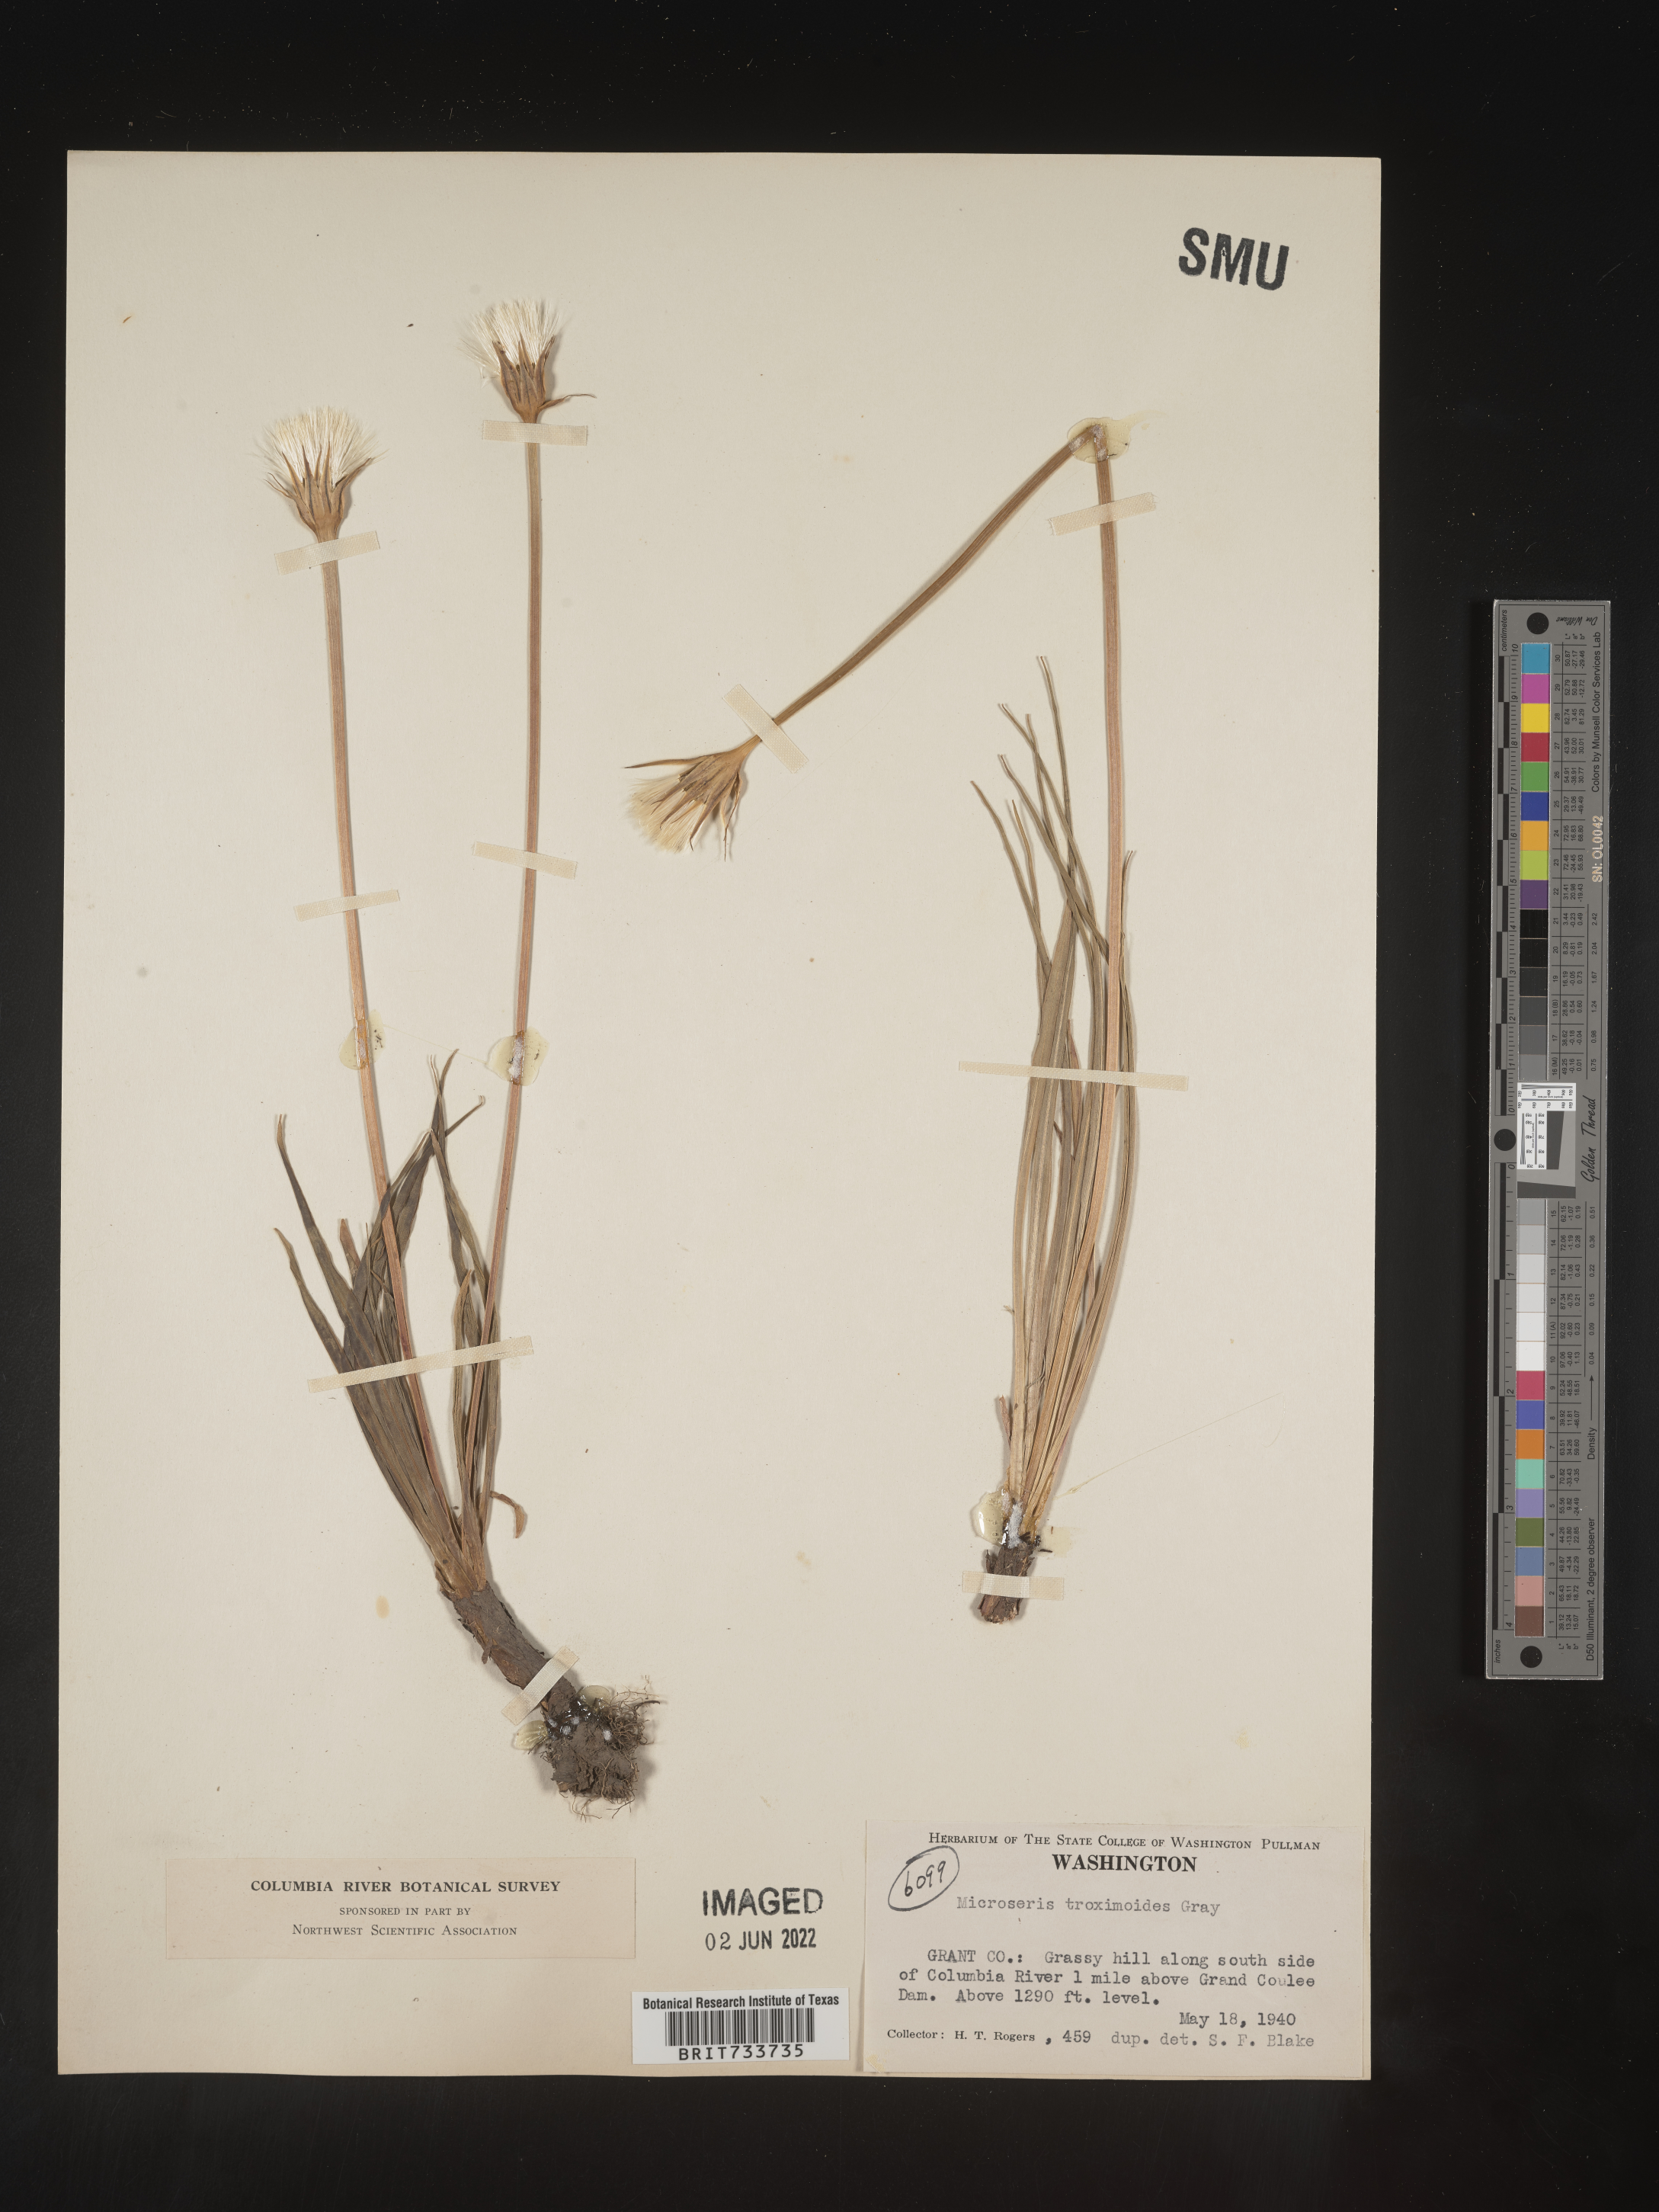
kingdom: Plantae
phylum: Tracheophyta
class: Magnoliopsida
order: Asterales
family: Asteraceae
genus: Microseris
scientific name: Microseris
